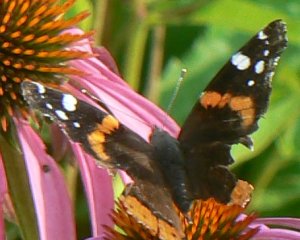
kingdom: Animalia
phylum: Arthropoda
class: Insecta
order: Lepidoptera
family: Nymphalidae
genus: Vanessa
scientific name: Vanessa atalanta
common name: Red Admiral
